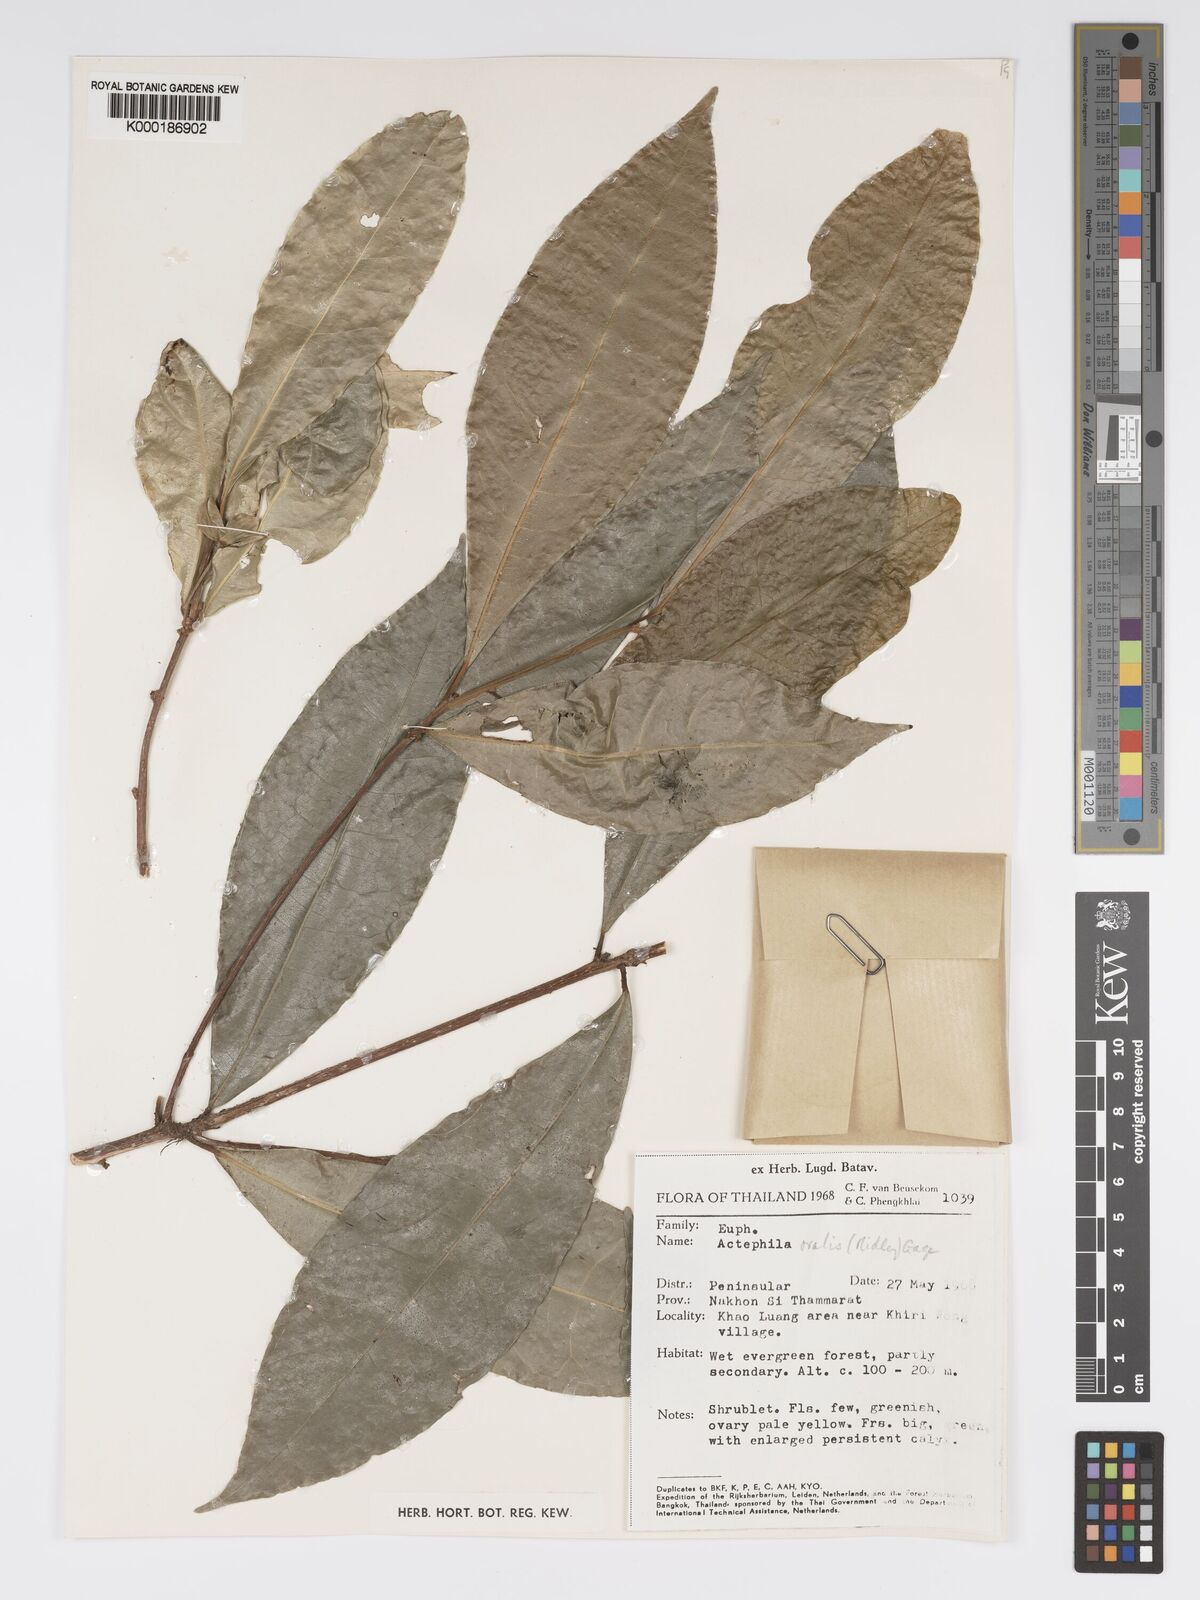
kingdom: Plantae
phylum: Tracheophyta
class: Magnoliopsida
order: Malpighiales
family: Phyllanthaceae
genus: Actephila
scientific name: Actephila ovalis
